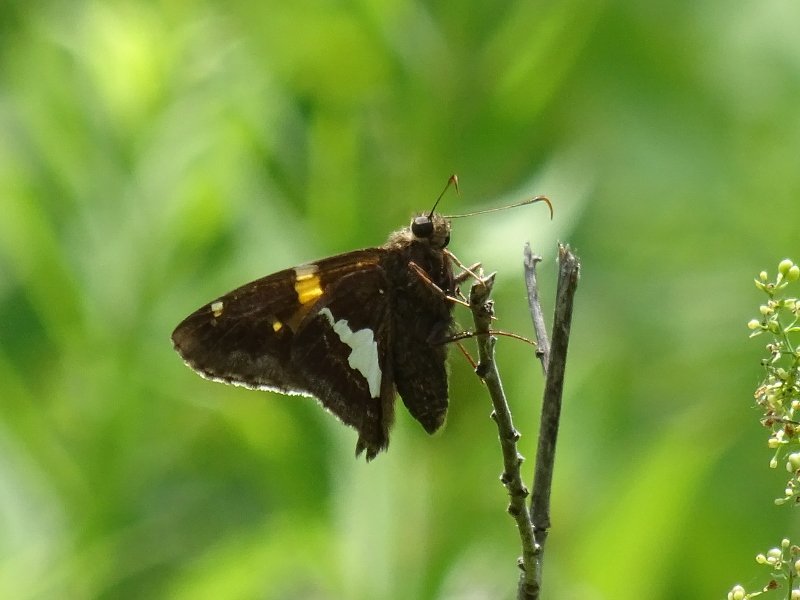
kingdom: Animalia
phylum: Arthropoda
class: Insecta
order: Lepidoptera
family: Hesperiidae
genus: Epargyreus
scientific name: Epargyreus clarus
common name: Silver-spotted Skipper
